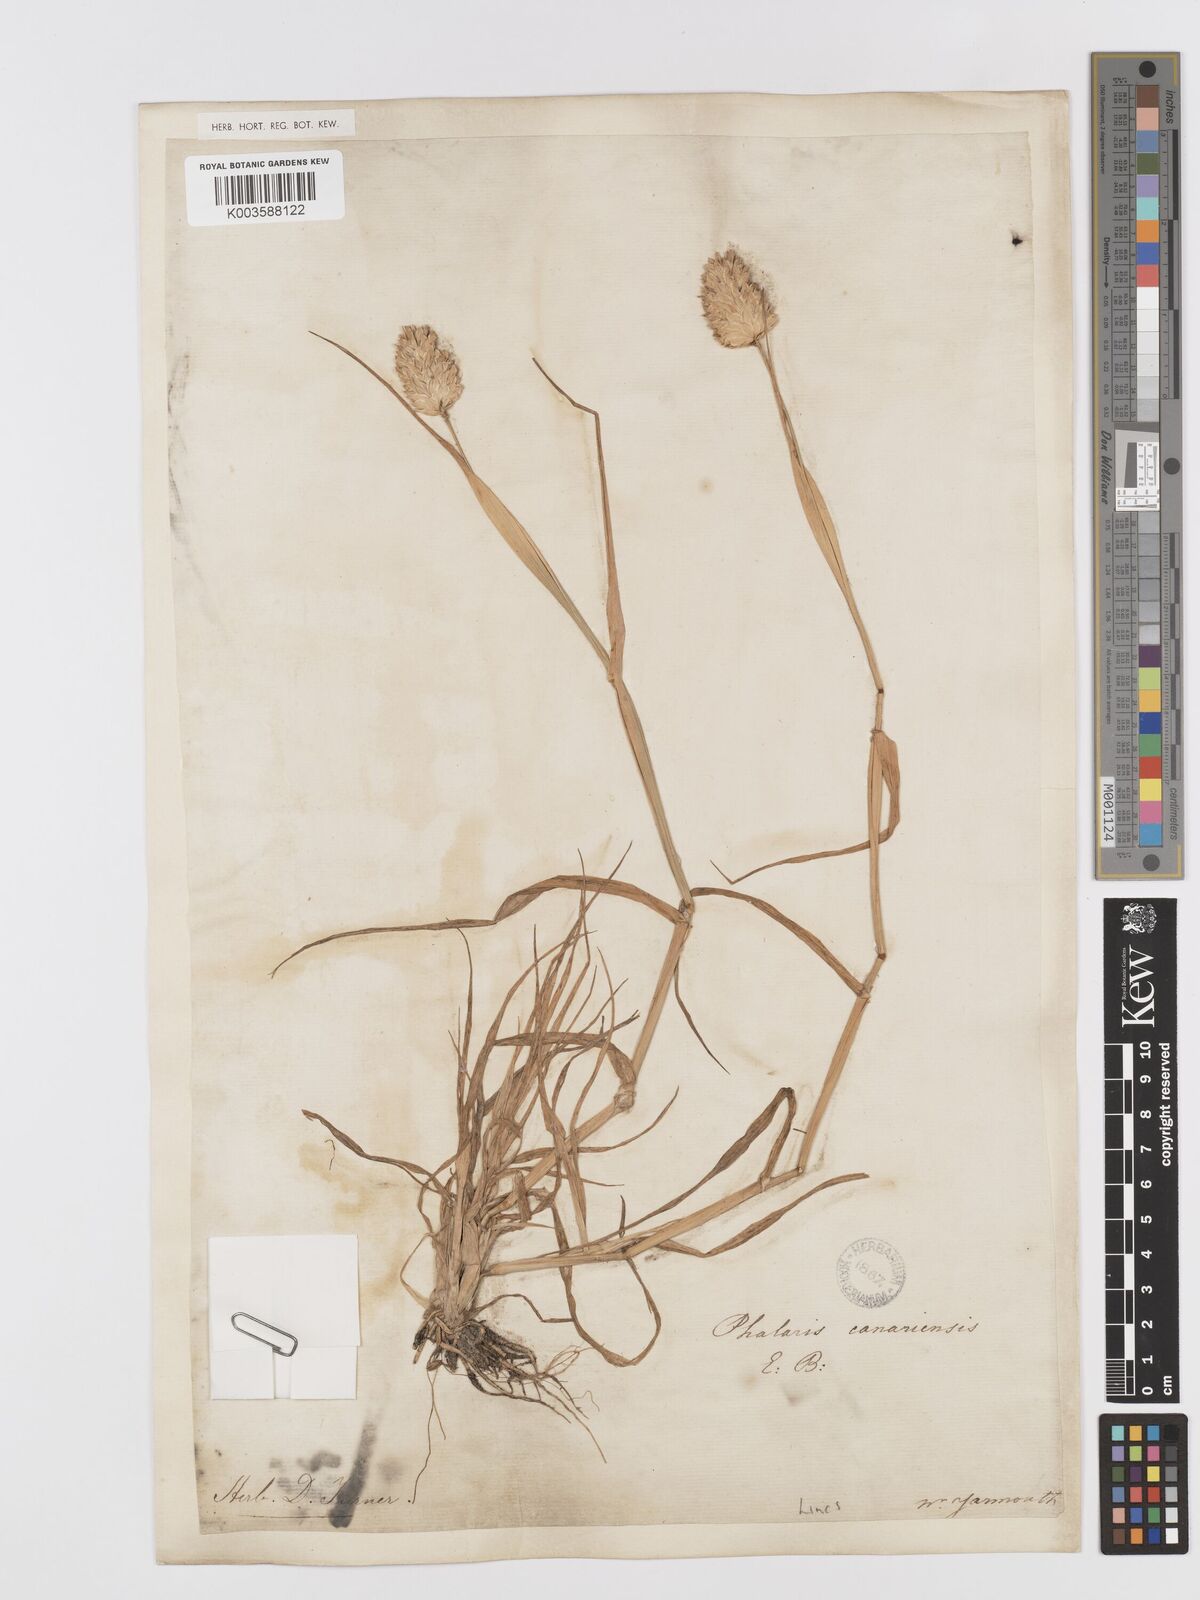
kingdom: Plantae
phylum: Tracheophyta
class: Liliopsida
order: Poales
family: Poaceae
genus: Phalaris
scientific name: Phalaris canariensis
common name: Annual canarygrass
